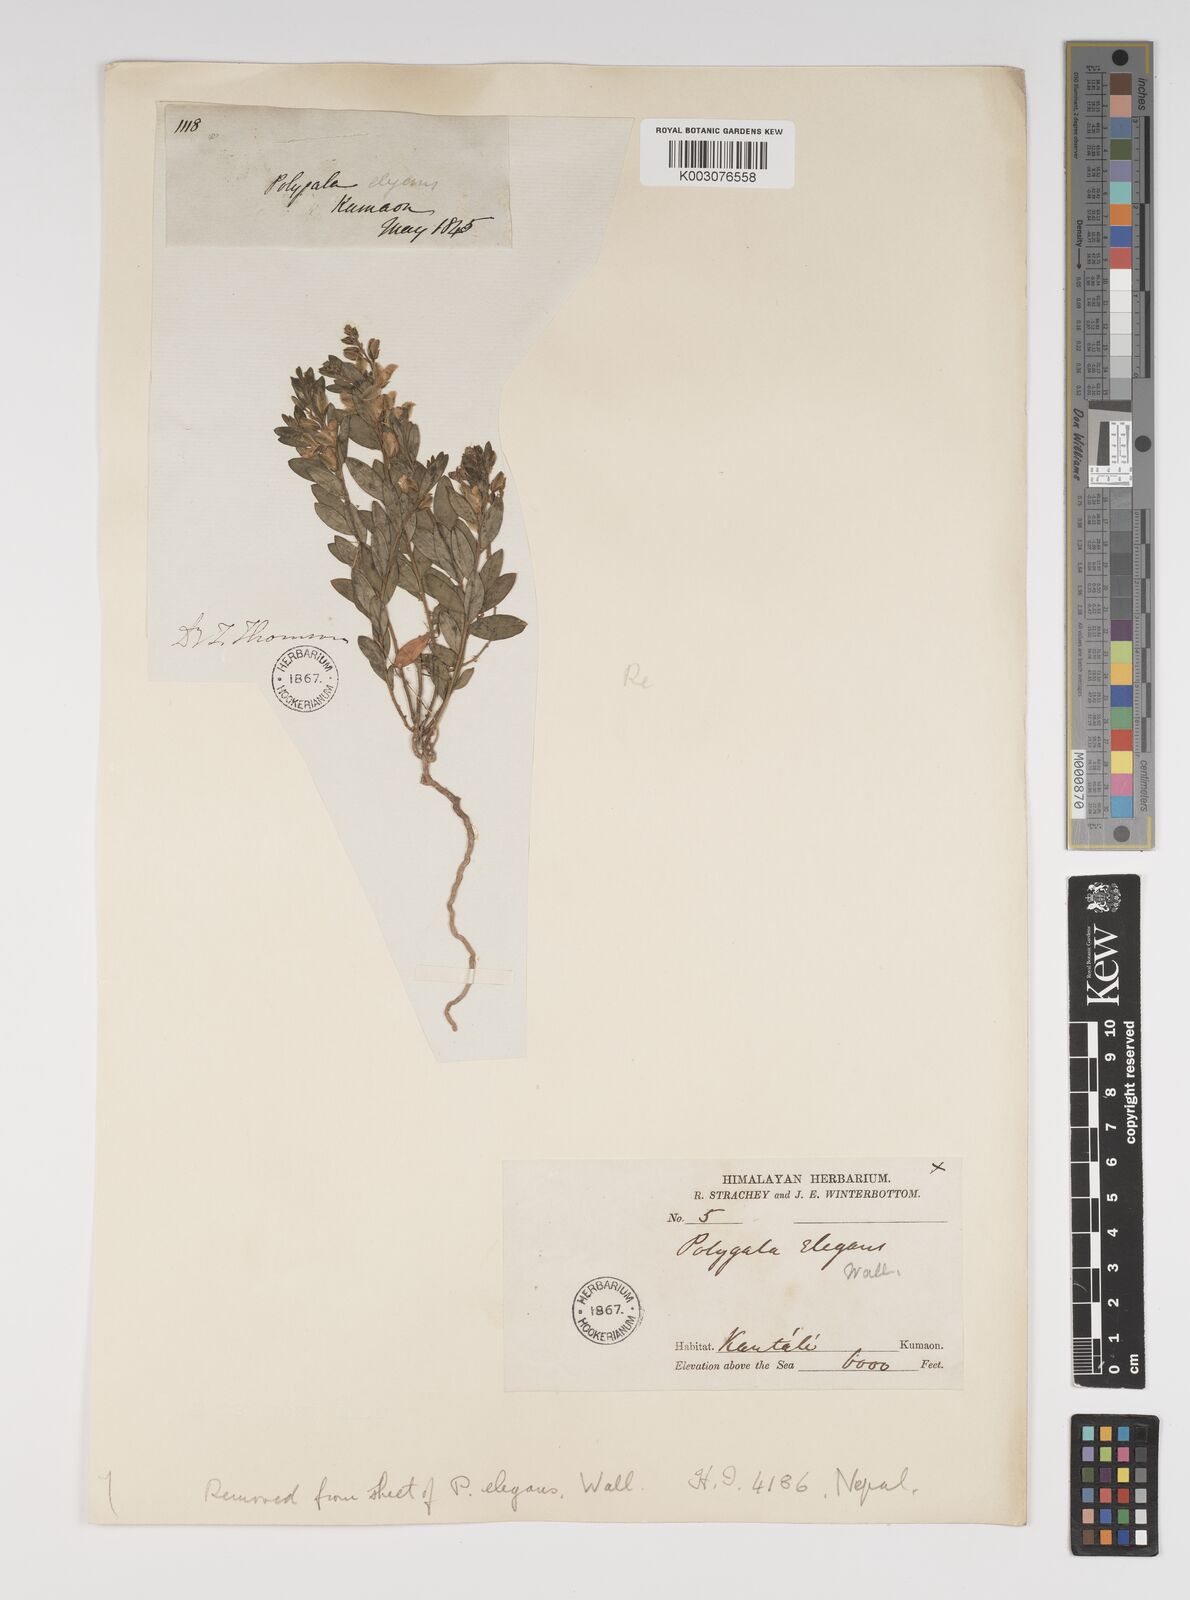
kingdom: Plantae
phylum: Tracheophyta
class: Magnoliopsida
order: Fabales
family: Polygalaceae
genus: Polygala
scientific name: Polygala sibirica
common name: Siberian polygala
